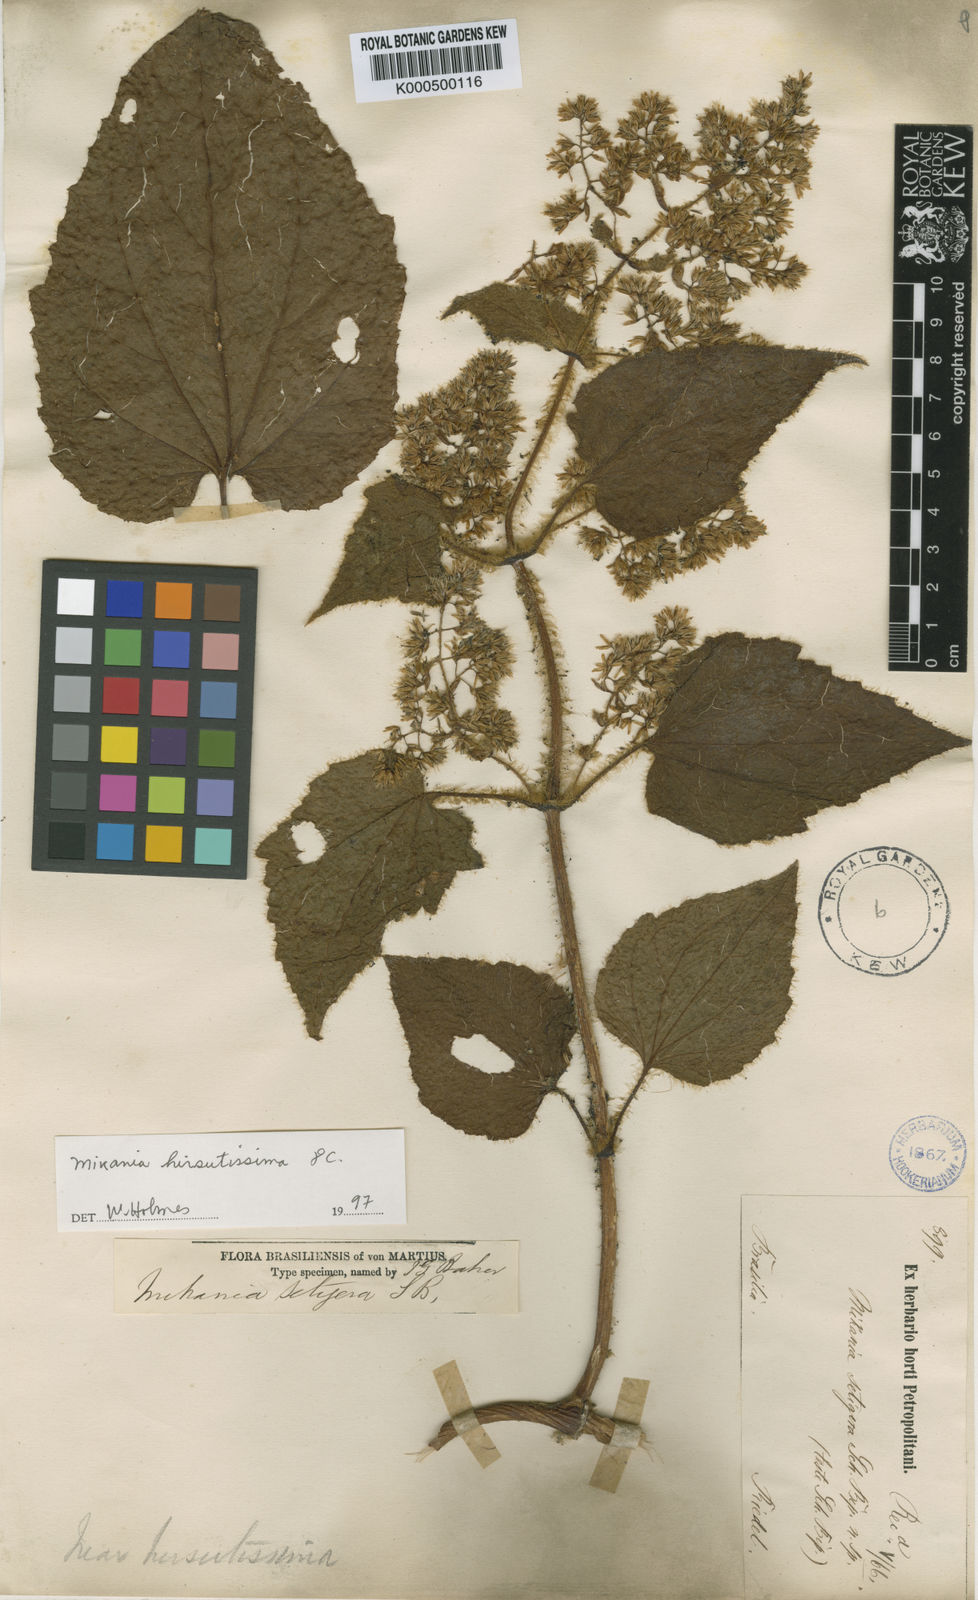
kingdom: Plantae
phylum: Tracheophyta
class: Magnoliopsida
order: Asterales
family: Asteraceae
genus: Mikania
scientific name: Mikania setigera
